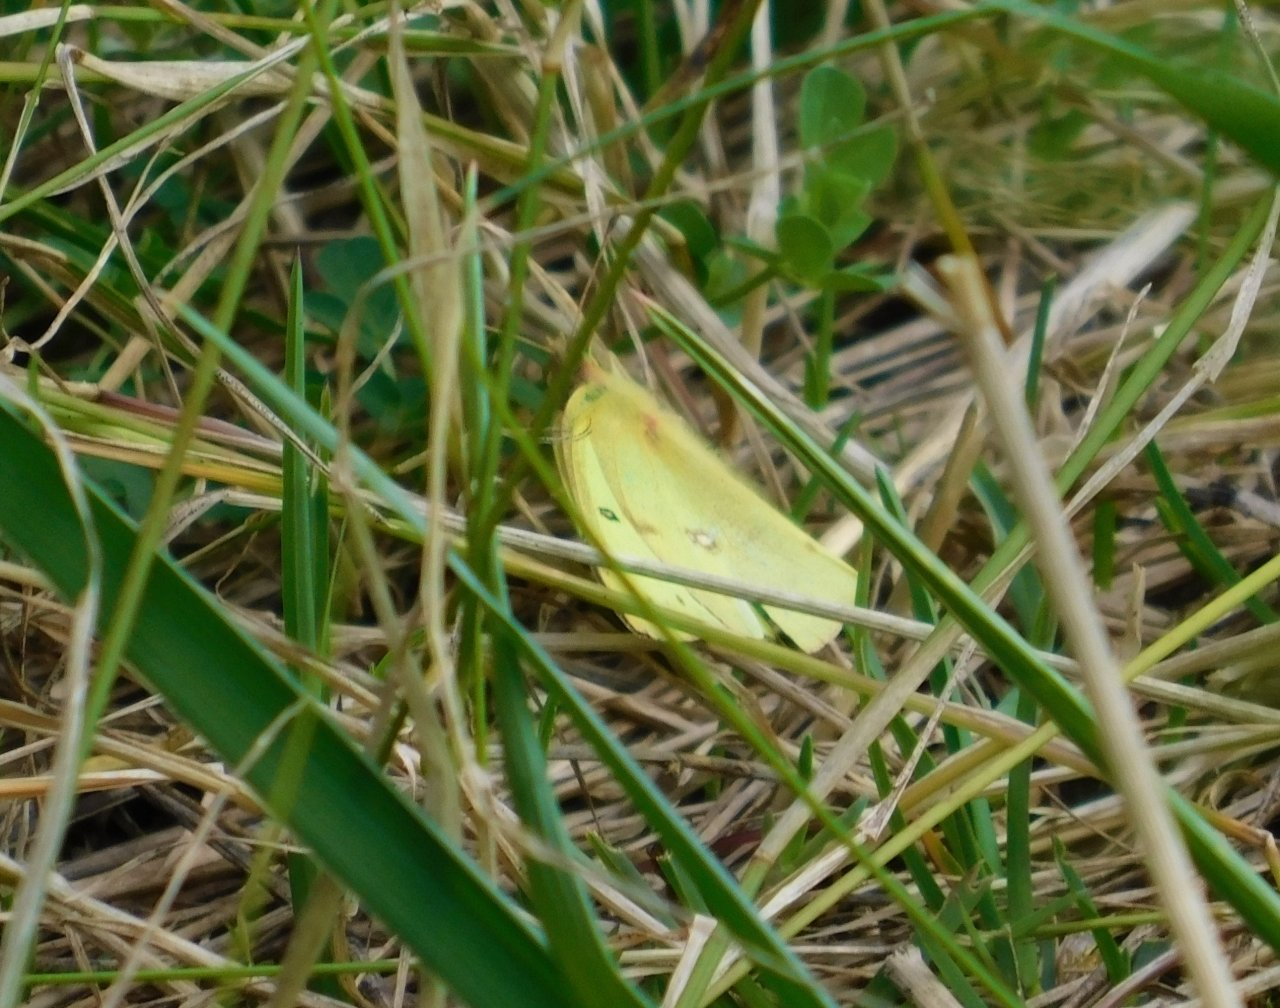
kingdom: Animalia
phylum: Arthropoda
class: Insecta
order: Lepidoptera
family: Pieridae
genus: Colias
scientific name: Colias philodice
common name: Clouded Sulphur
